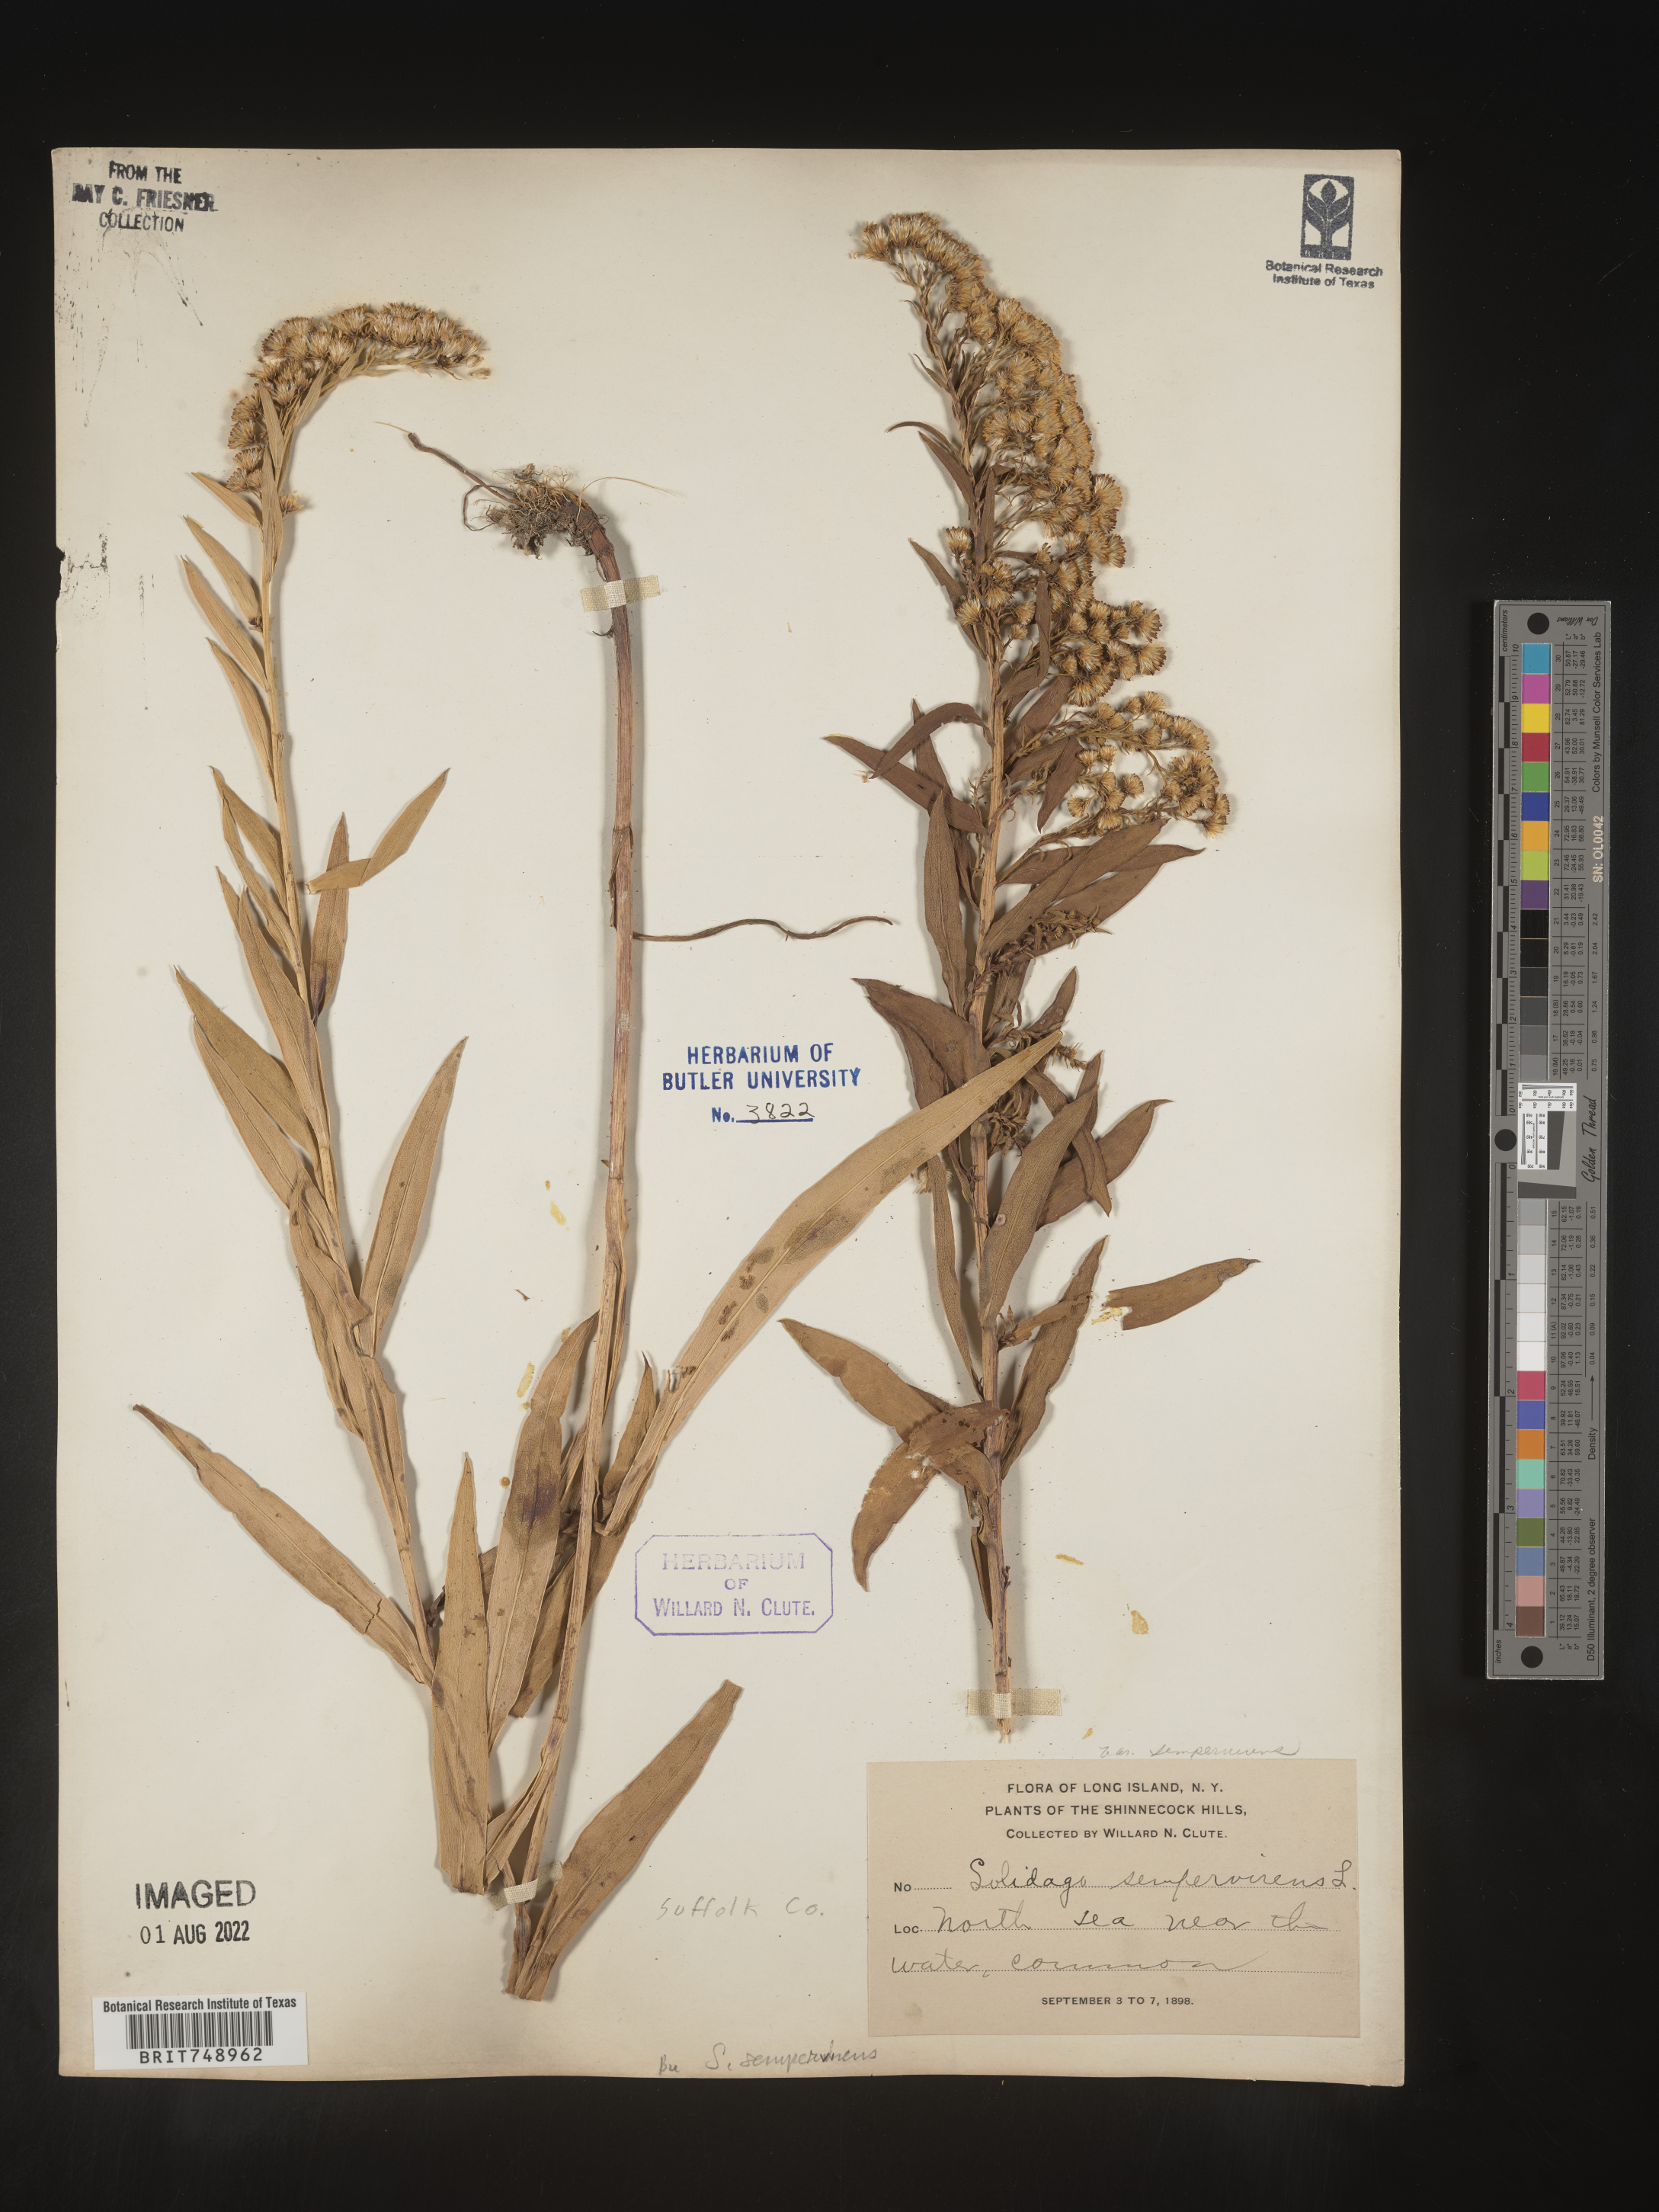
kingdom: Plantae
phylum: Tracheophyta
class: Magnoliopsida
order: Asterales
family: Asteraceae
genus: Solidago
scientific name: Solidago sempervirens
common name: Salt-marsh goldenrod
